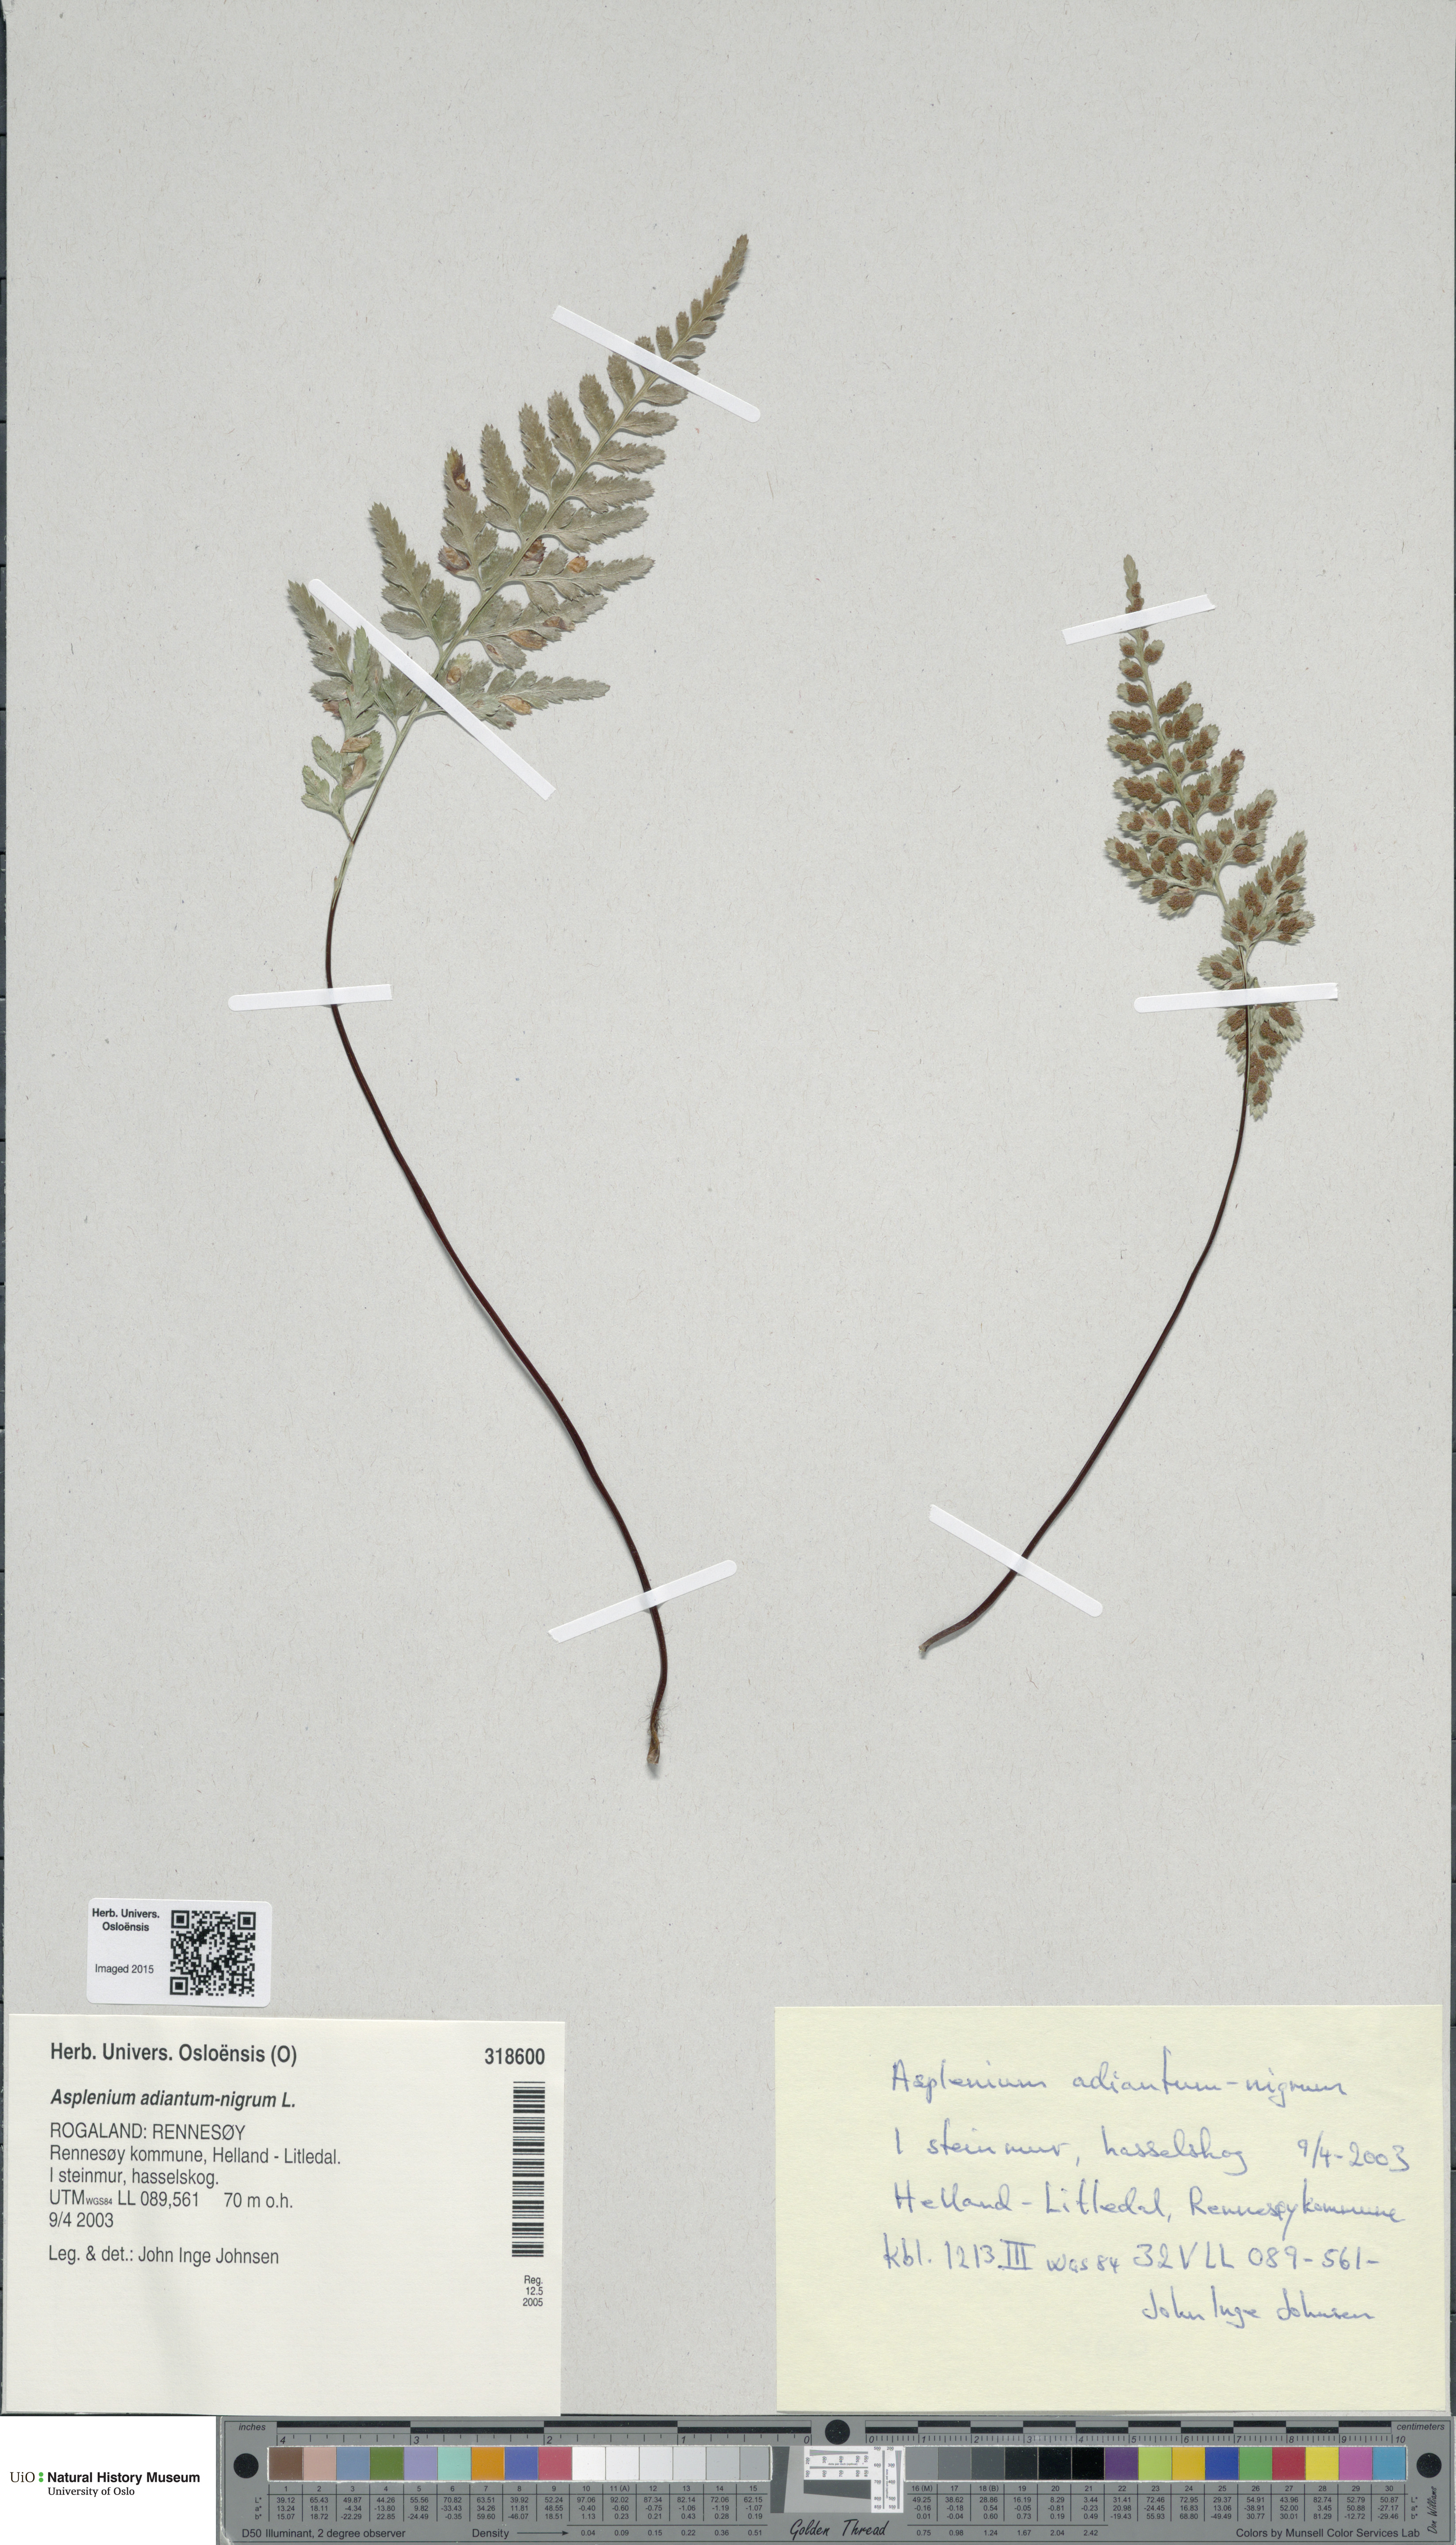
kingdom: Plantae
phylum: Tracheophyta
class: Polypodiopsida
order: Polypodiales
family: Aspleniaceae
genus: Asplenium
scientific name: Asplenium adiantum-nigrum
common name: Black spleenwort
